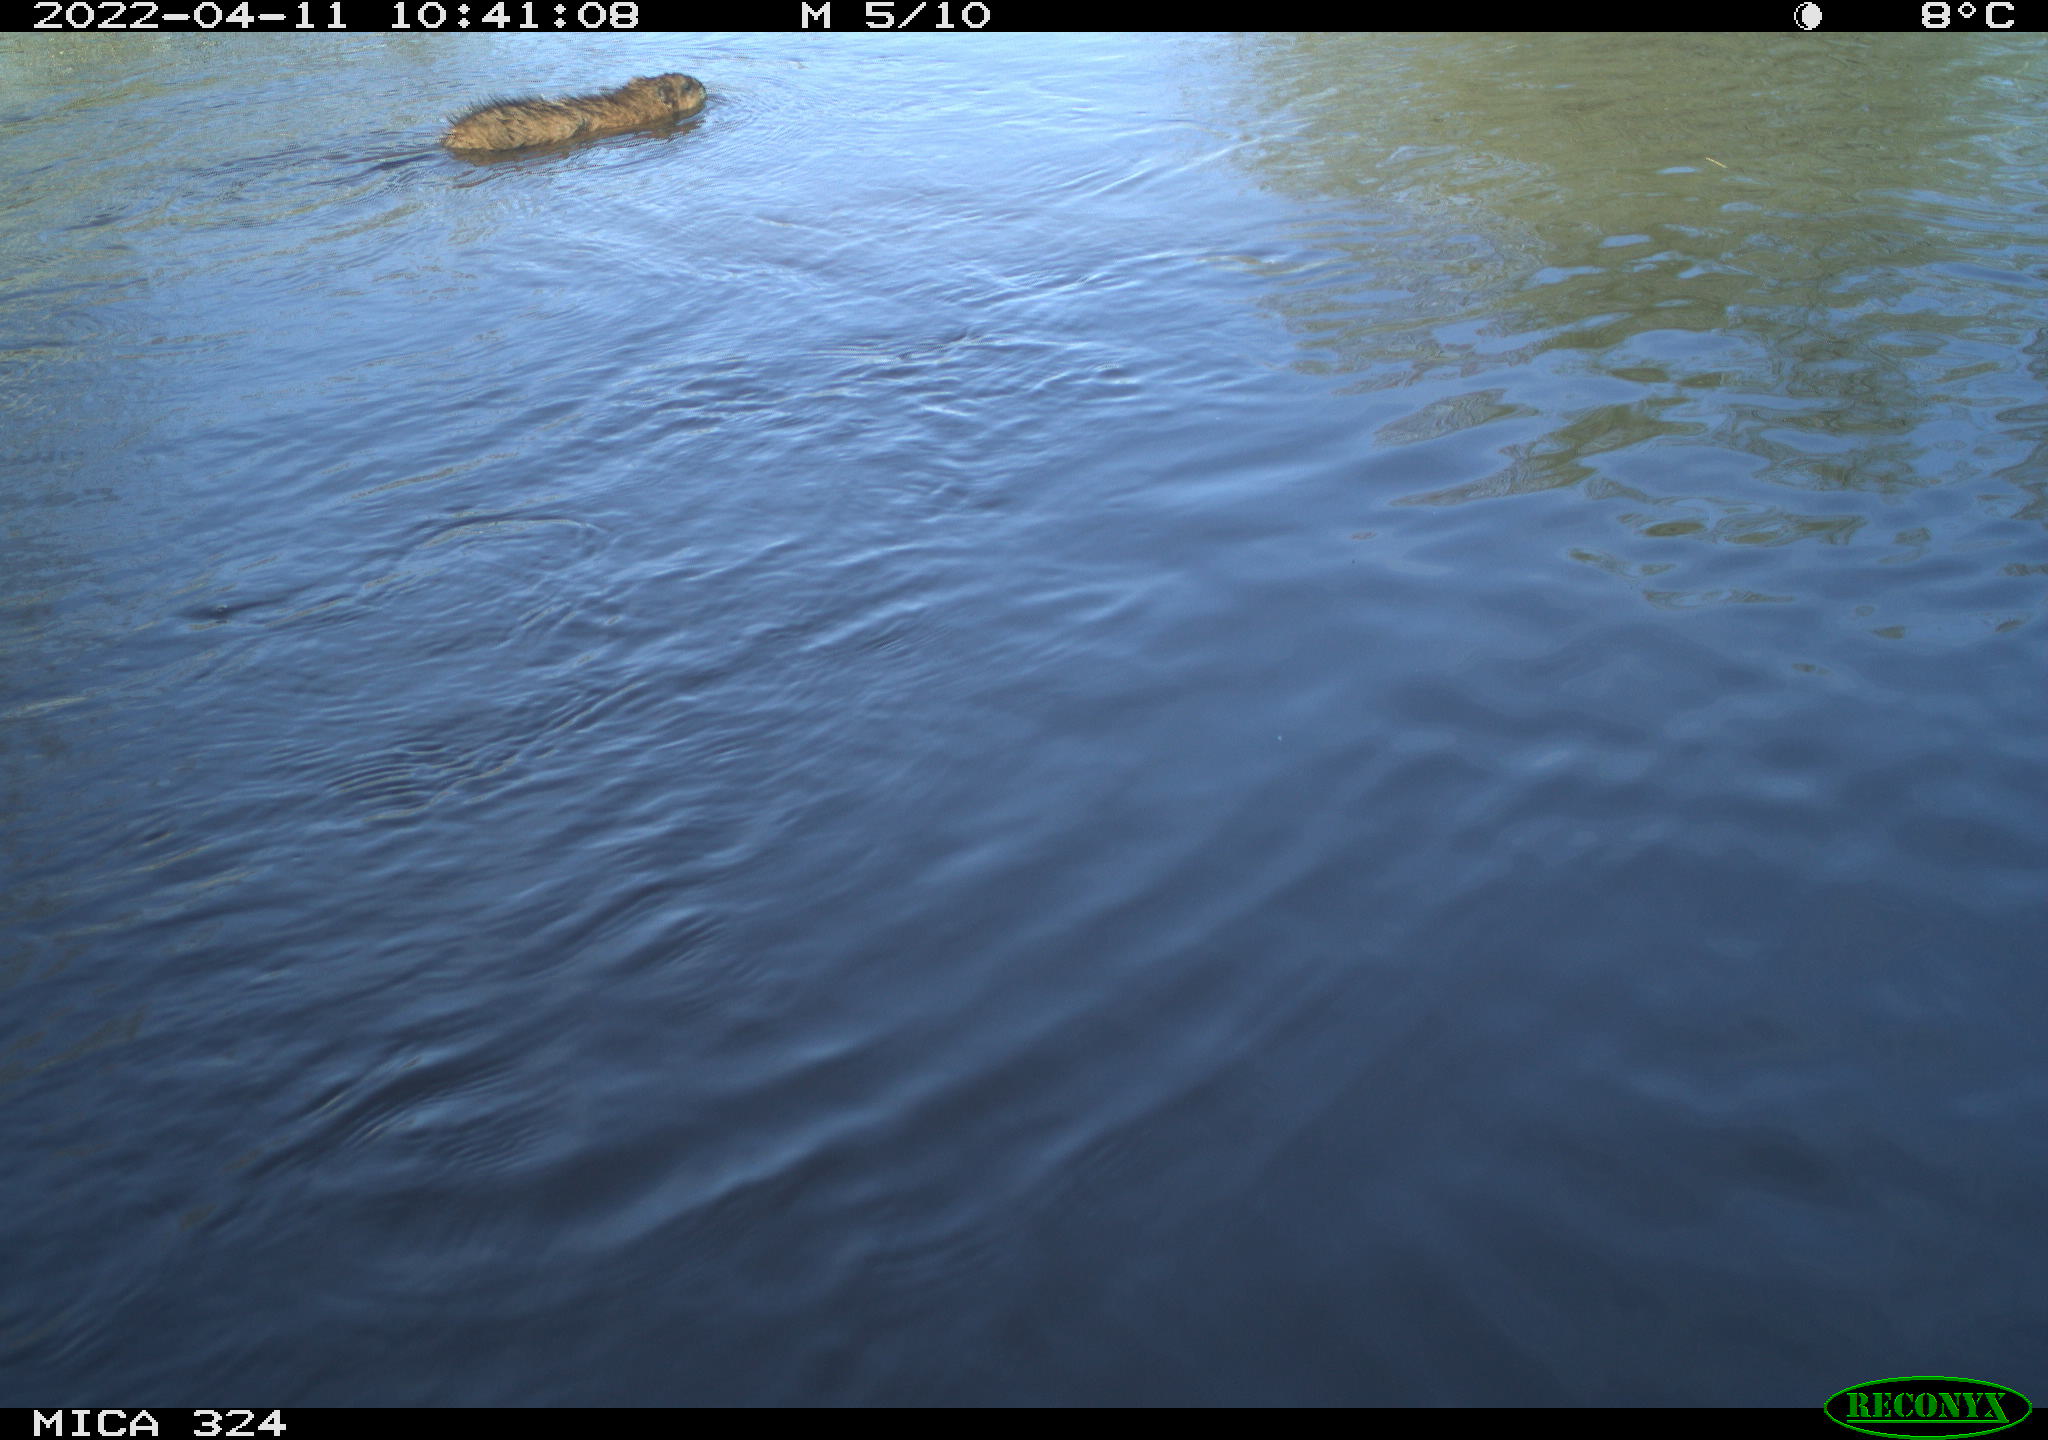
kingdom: Animalia
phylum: Chordata
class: Mammalia
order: Rodentia
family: Cricetidae
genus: Ondatra
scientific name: Ondatra zibethicus
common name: Muskrat
